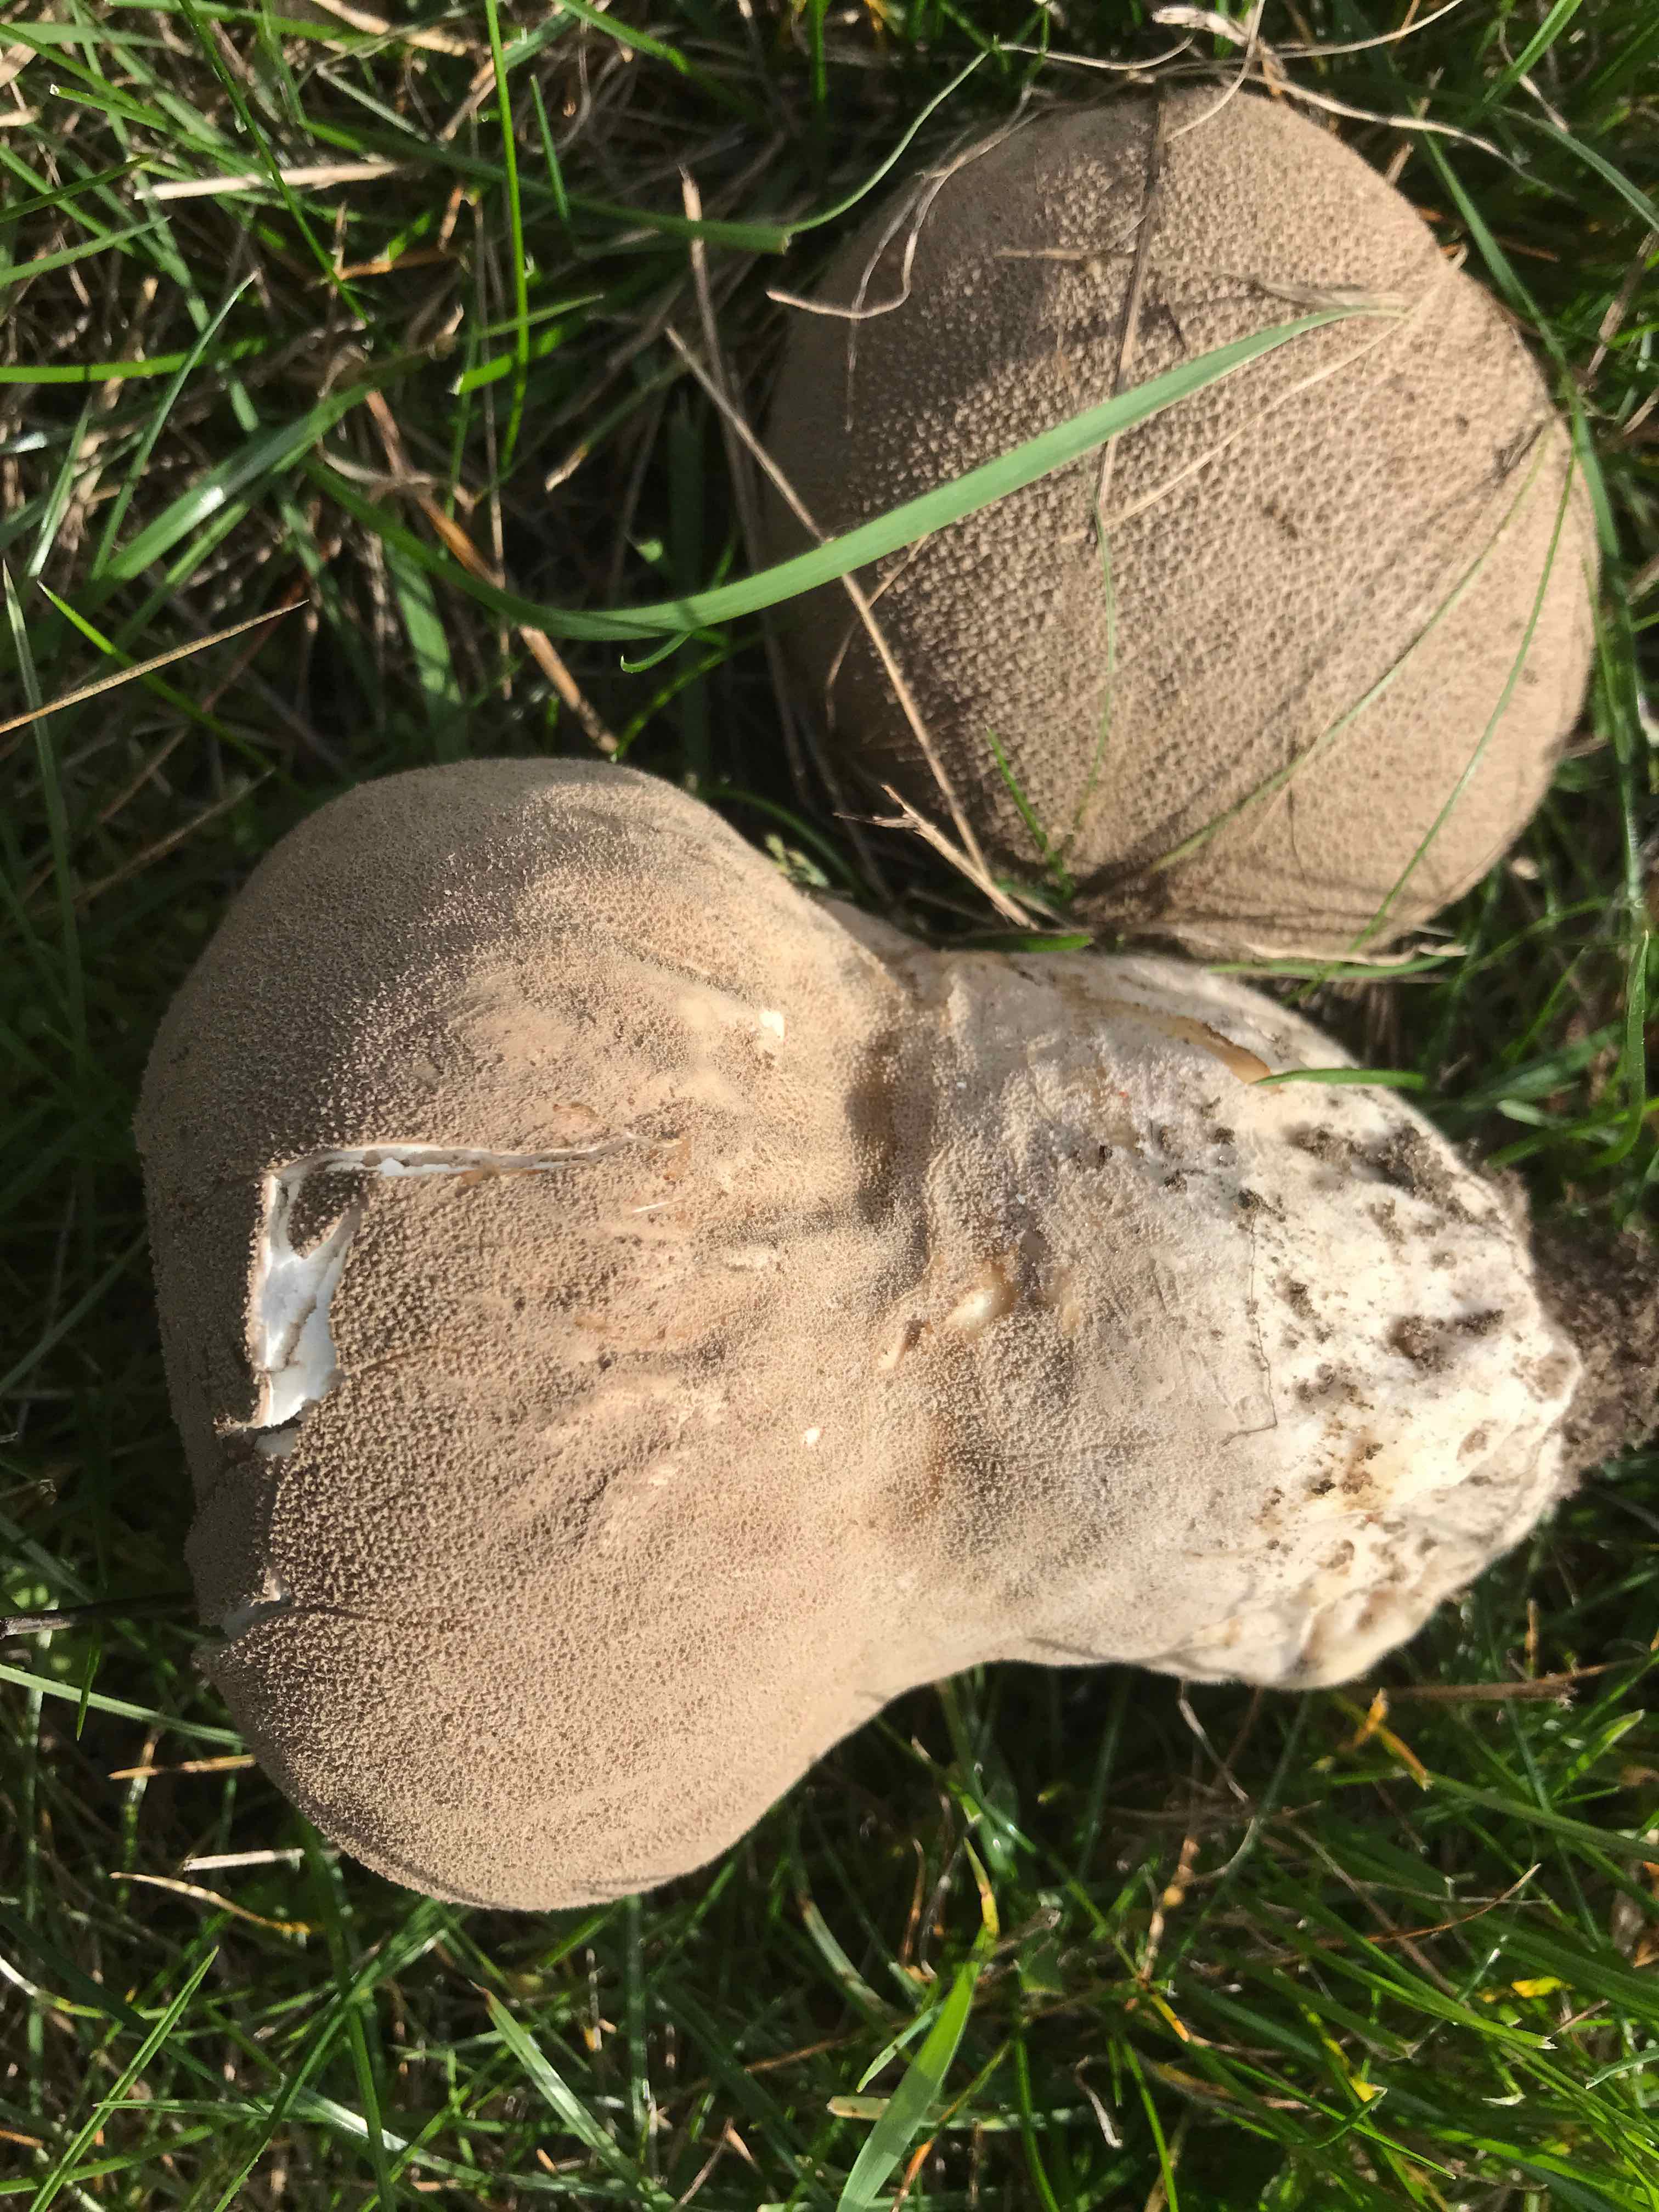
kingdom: Fungi
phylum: Basidiomycota
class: Agaricomycetes
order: Agaricales
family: Lycoperdaceae
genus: Bovistella
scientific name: Bovistella utriformis
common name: skællet støvbold
